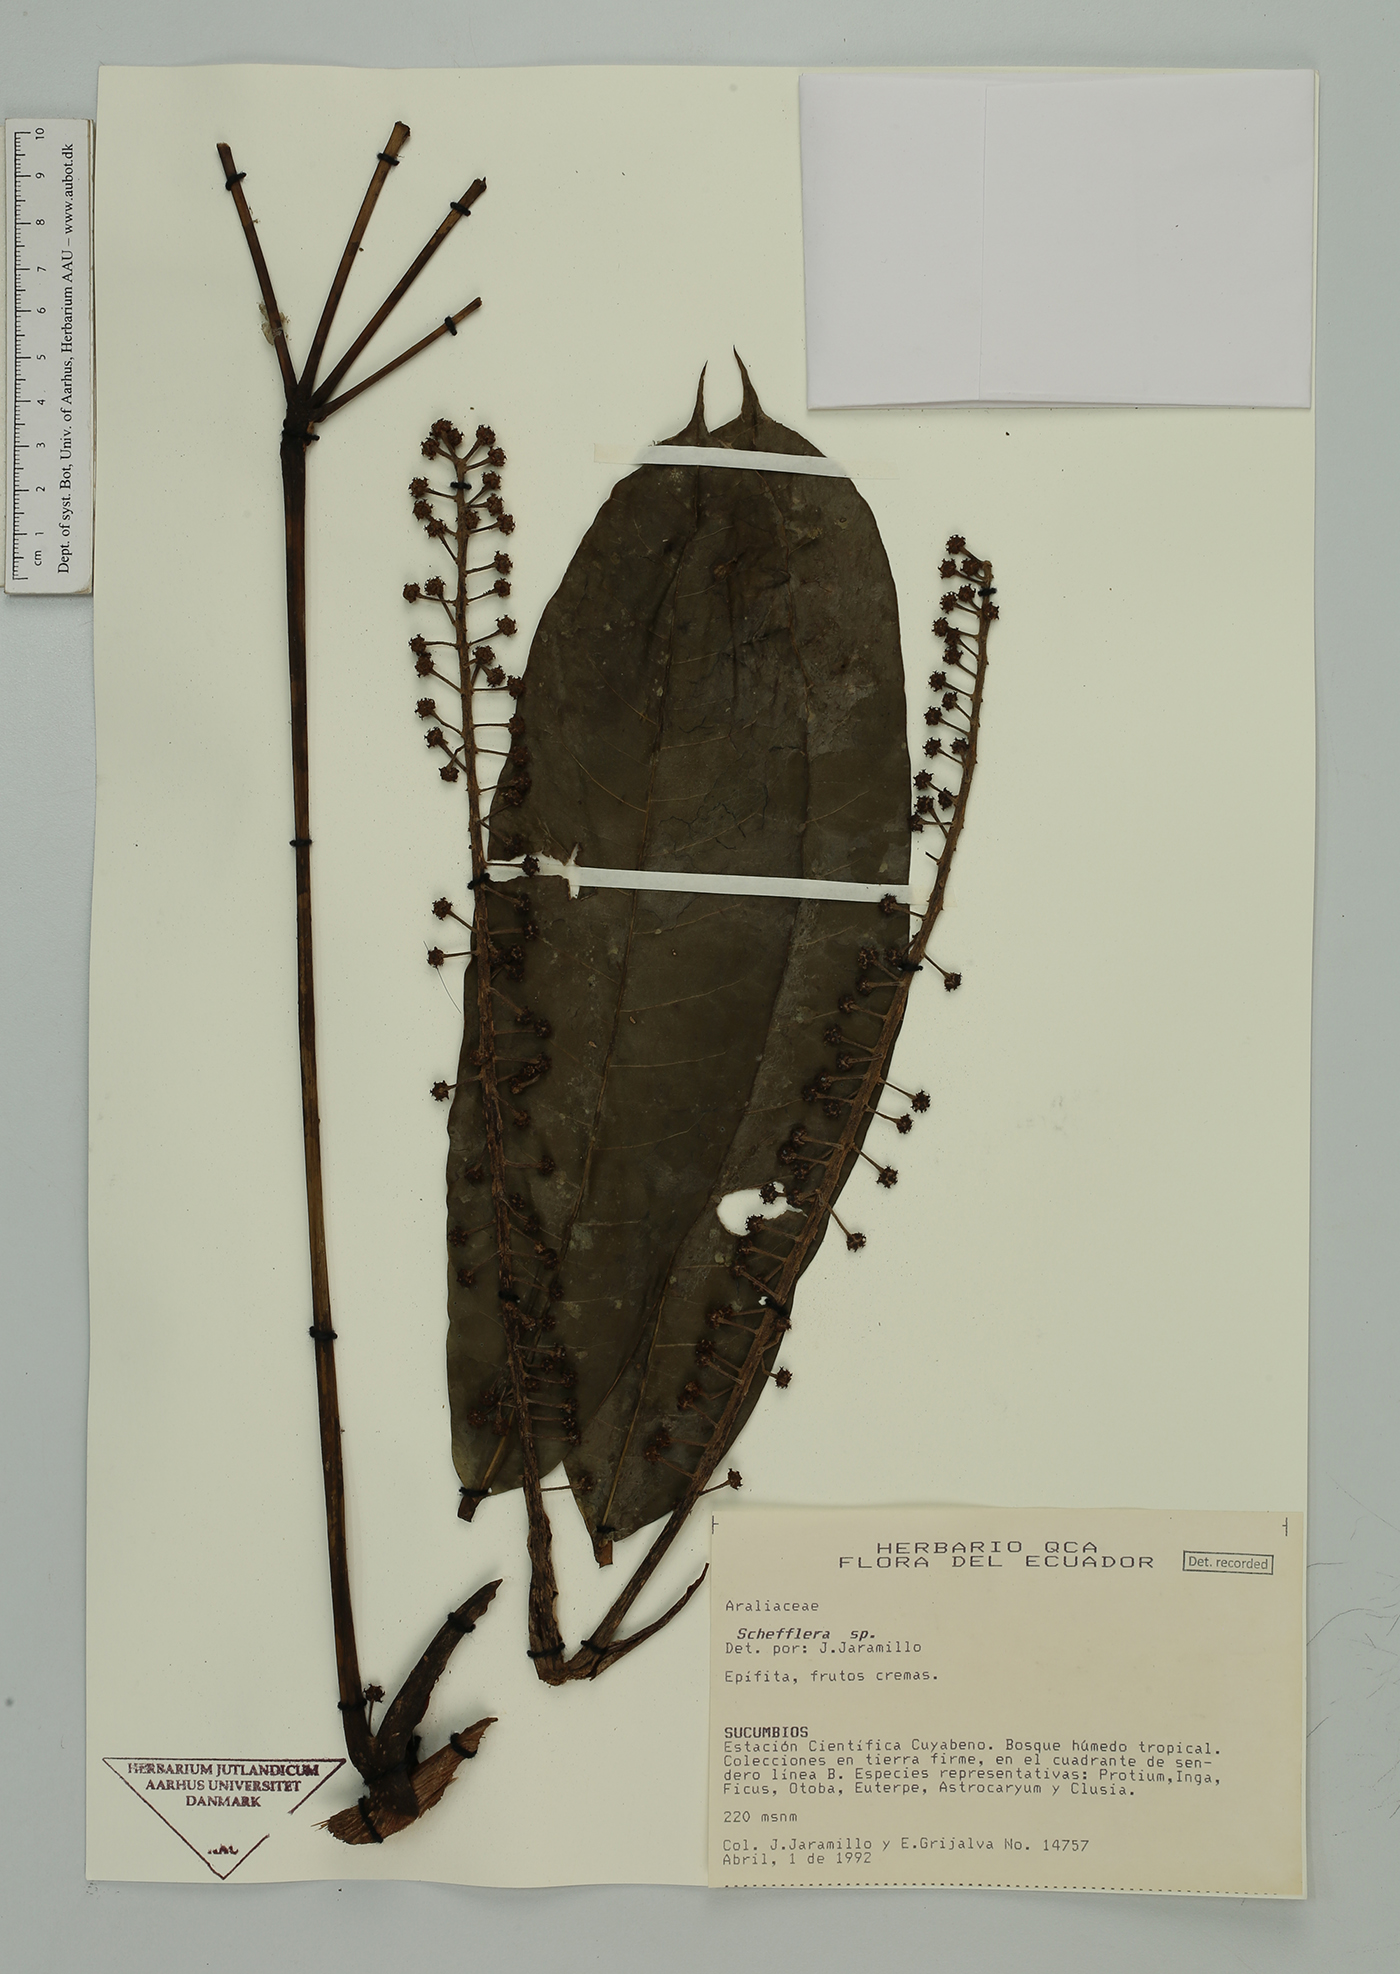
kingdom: Plantae
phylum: Tracheophyta
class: Magnoliopsida
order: Apiales
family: Araliaceae
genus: Sciodaphyllum
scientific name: Sciodaphyllum sprucei
